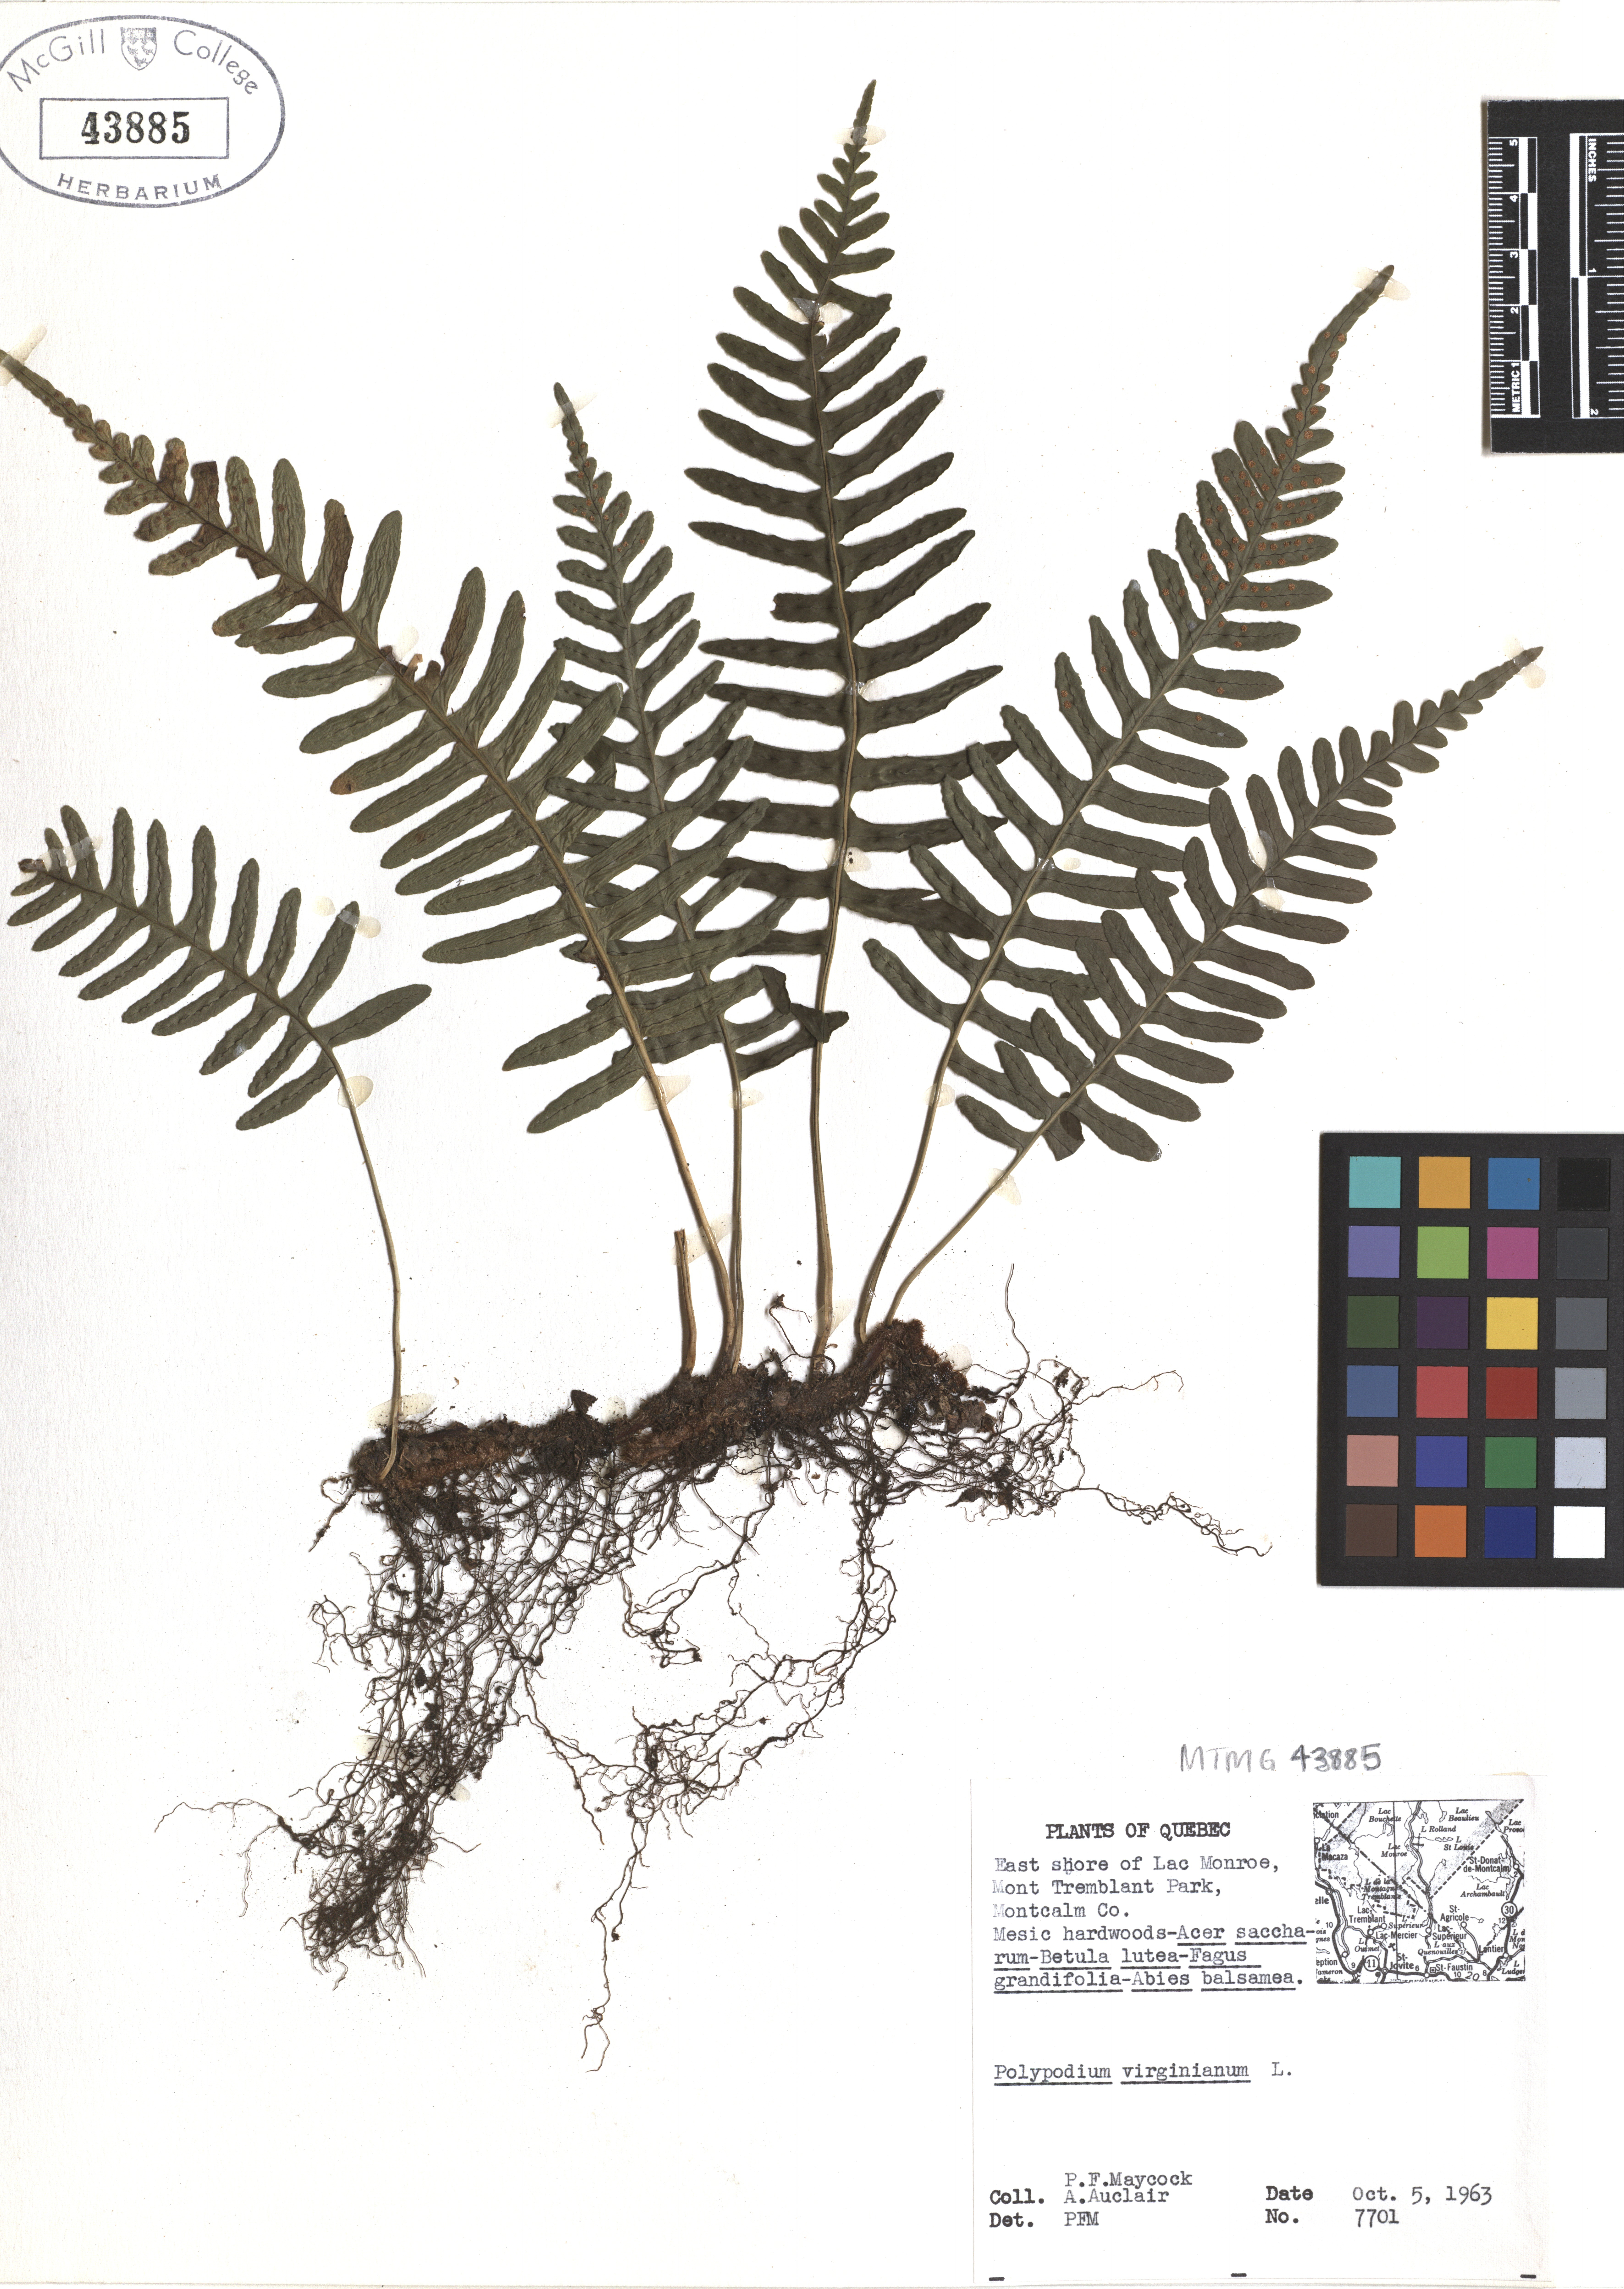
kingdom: Plantae
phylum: Tracheophyta
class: Polypodiopsida
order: Polypodiales
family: Polypodiaceae
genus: Polypodium
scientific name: Polypodium virginianum
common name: American wall fern
